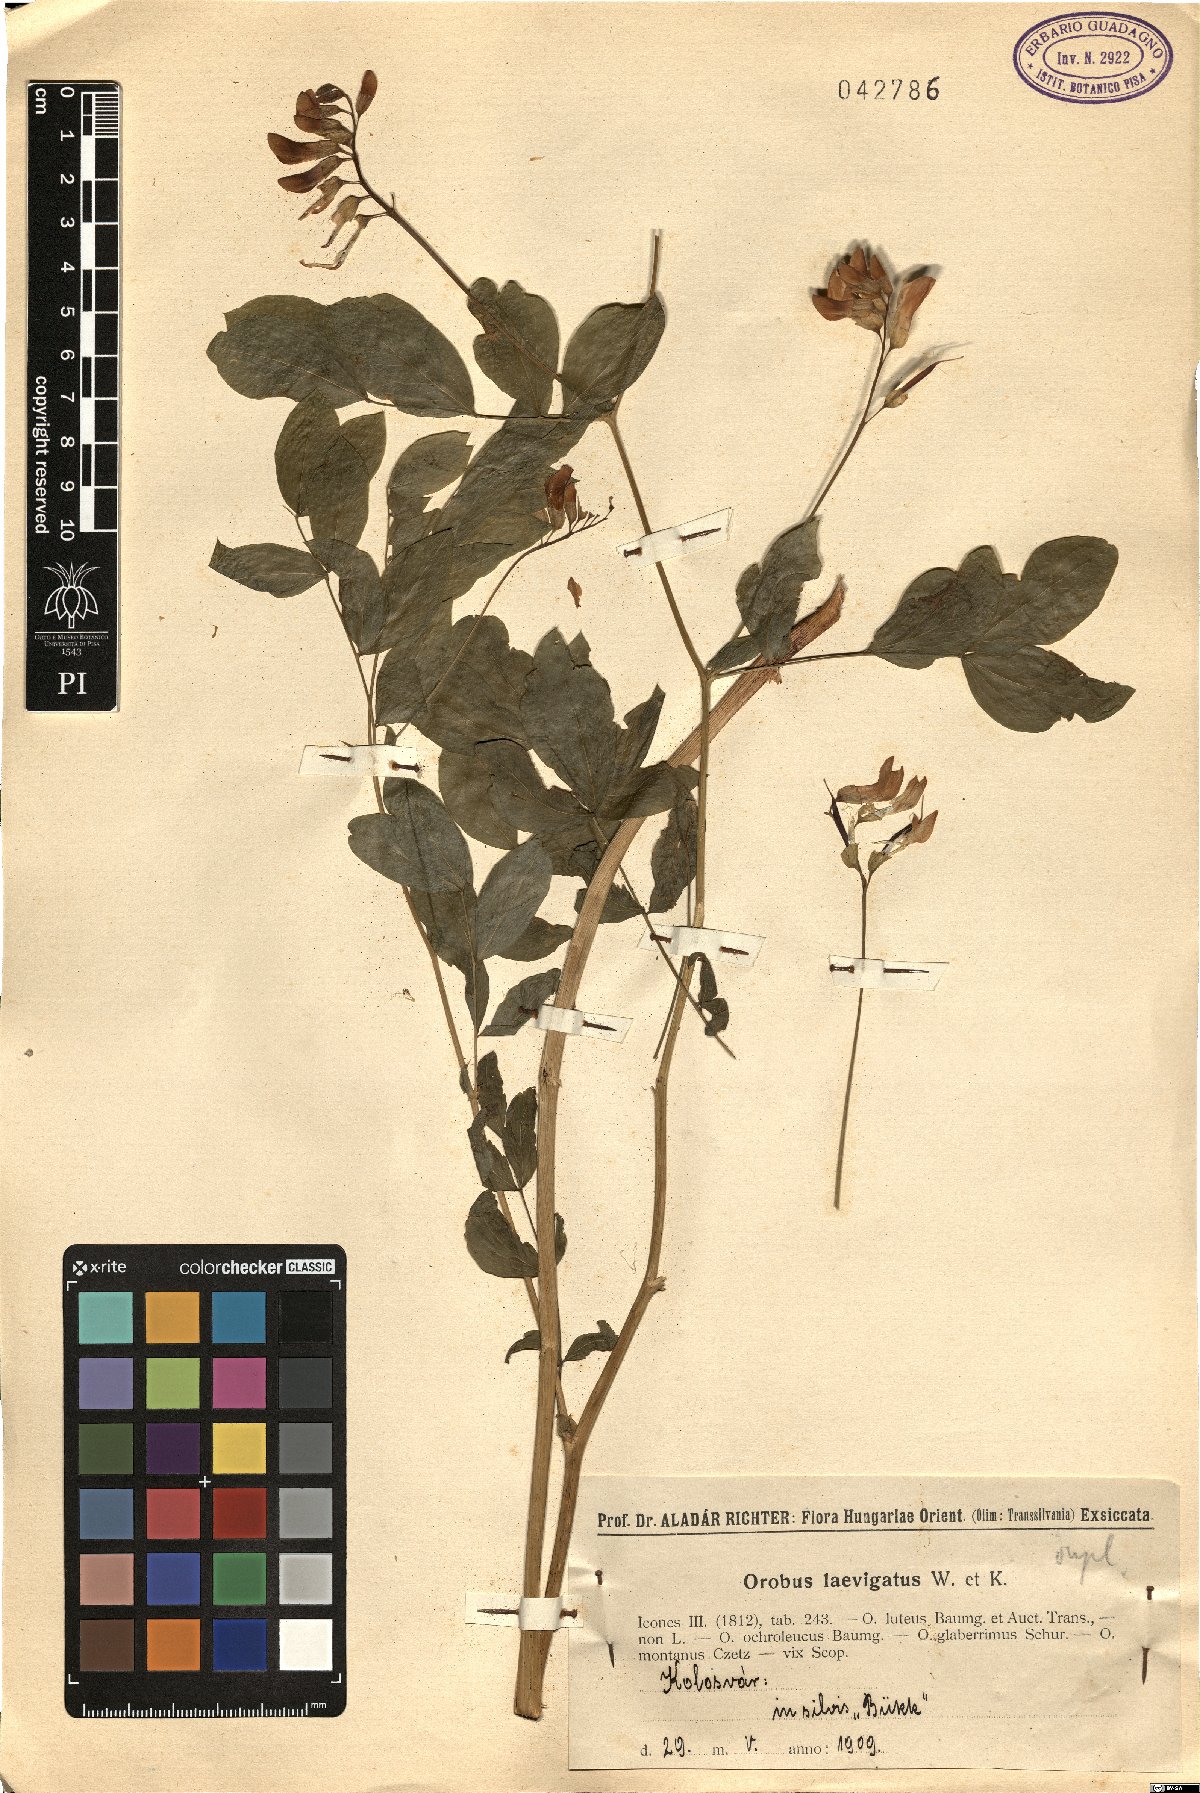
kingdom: Plantae
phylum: Tracheophyta
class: Magnoliopsida
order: Fabales
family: Fabaceae
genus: Lathyrus
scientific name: Lathyrus laevigatus
